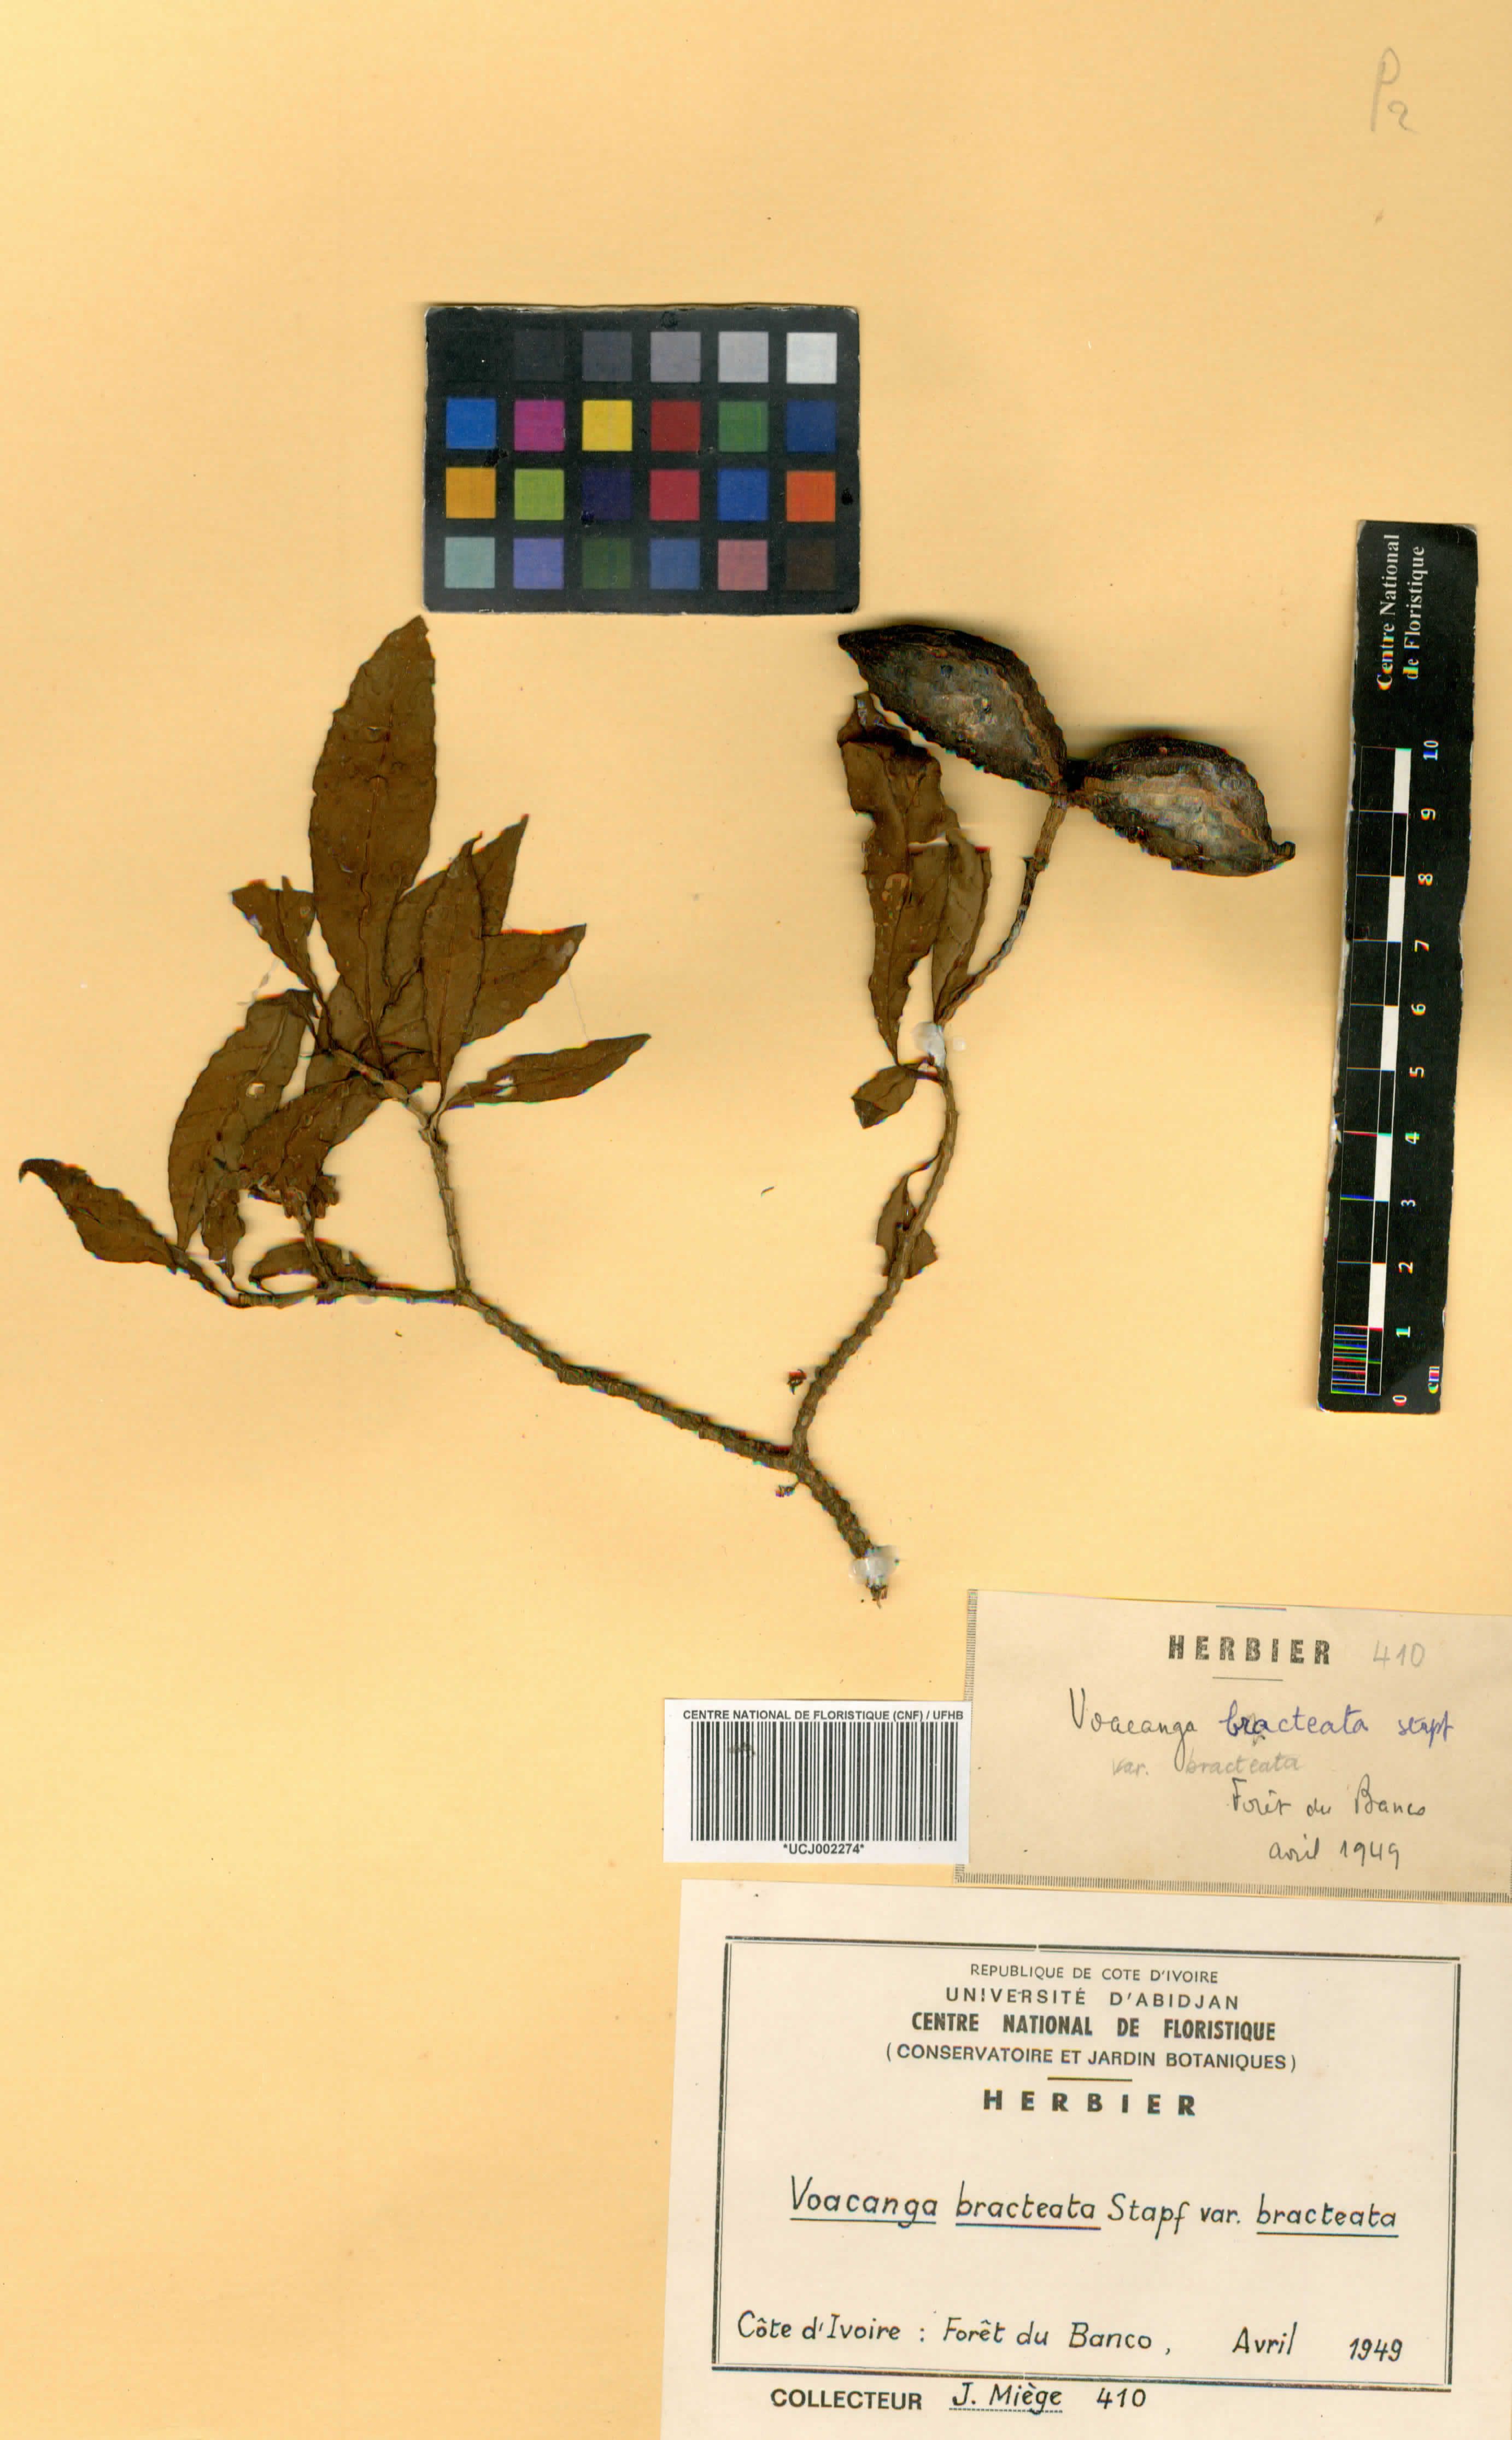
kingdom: Plantae
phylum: Tracheophyta
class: Magnoliopsida
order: Gentianales
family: Apocynaceae
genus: Voacanga
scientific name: Voacanga bracteata
